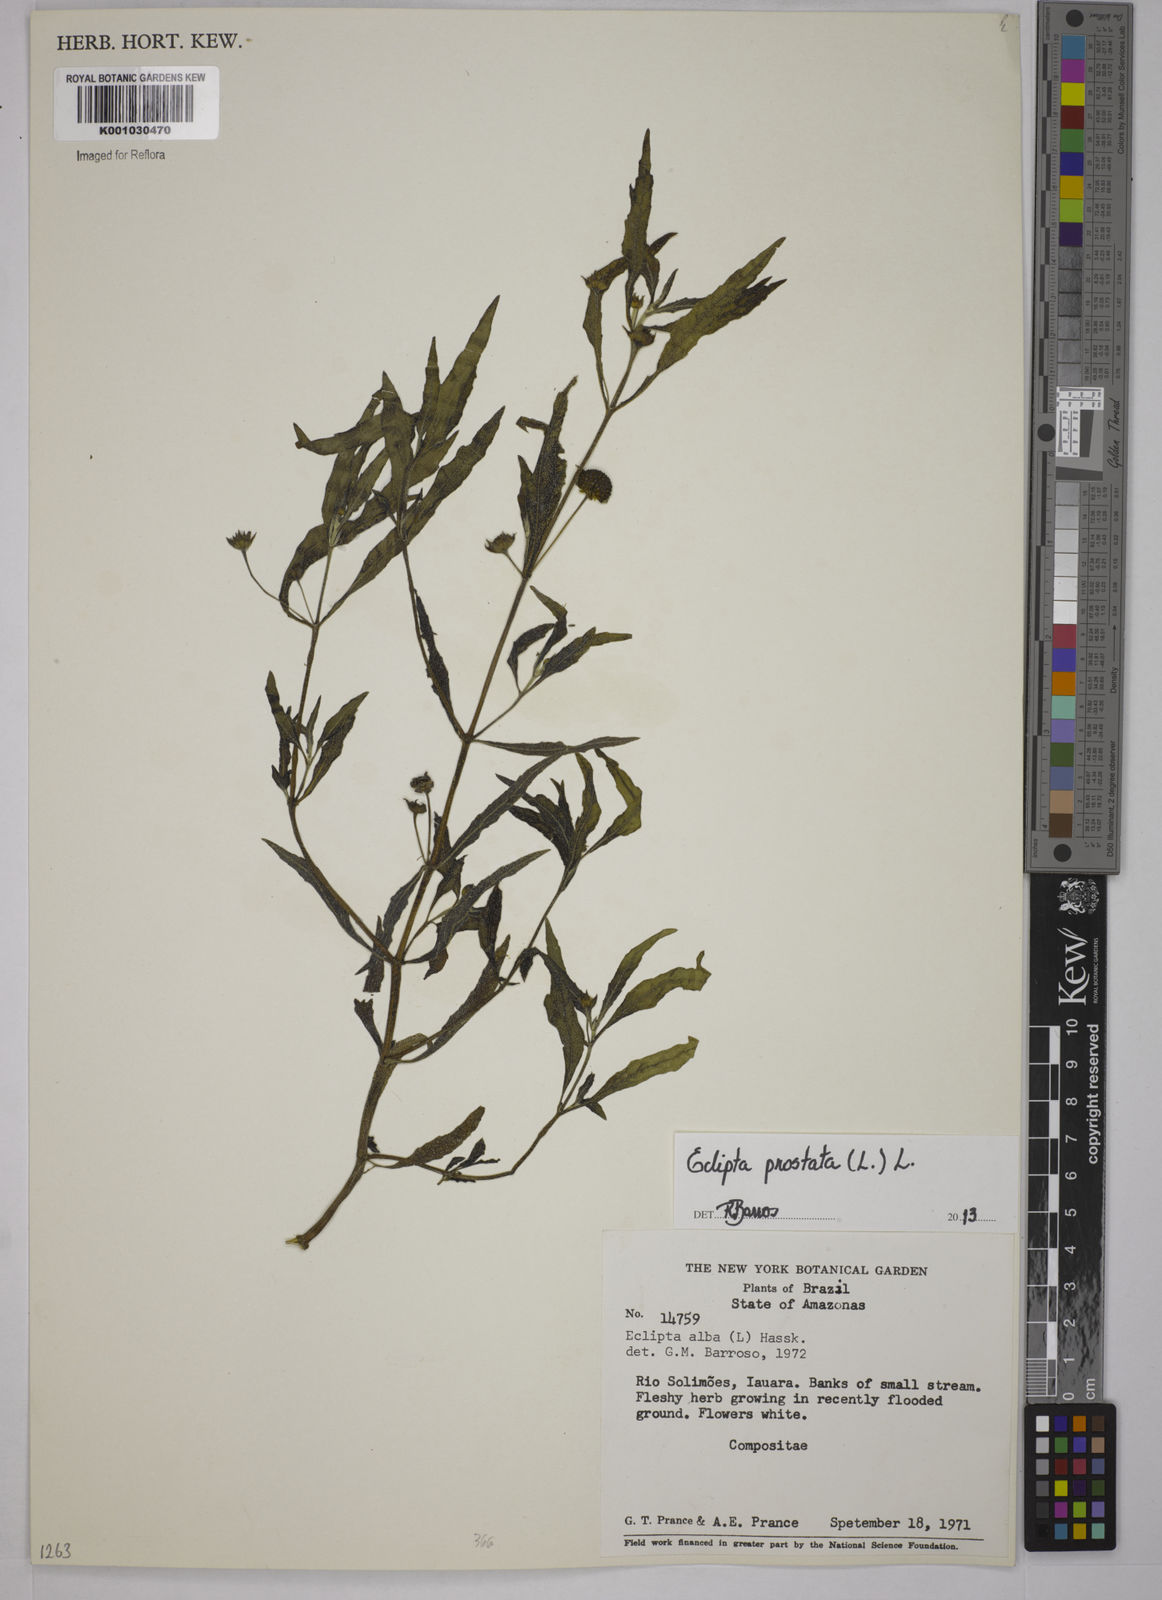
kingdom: Plantae
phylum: Tracheophyta
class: Magnoliopsida
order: Asterales
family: Asteraceae
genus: Eclipta
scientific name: Eclipta prostrata
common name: False daisy
